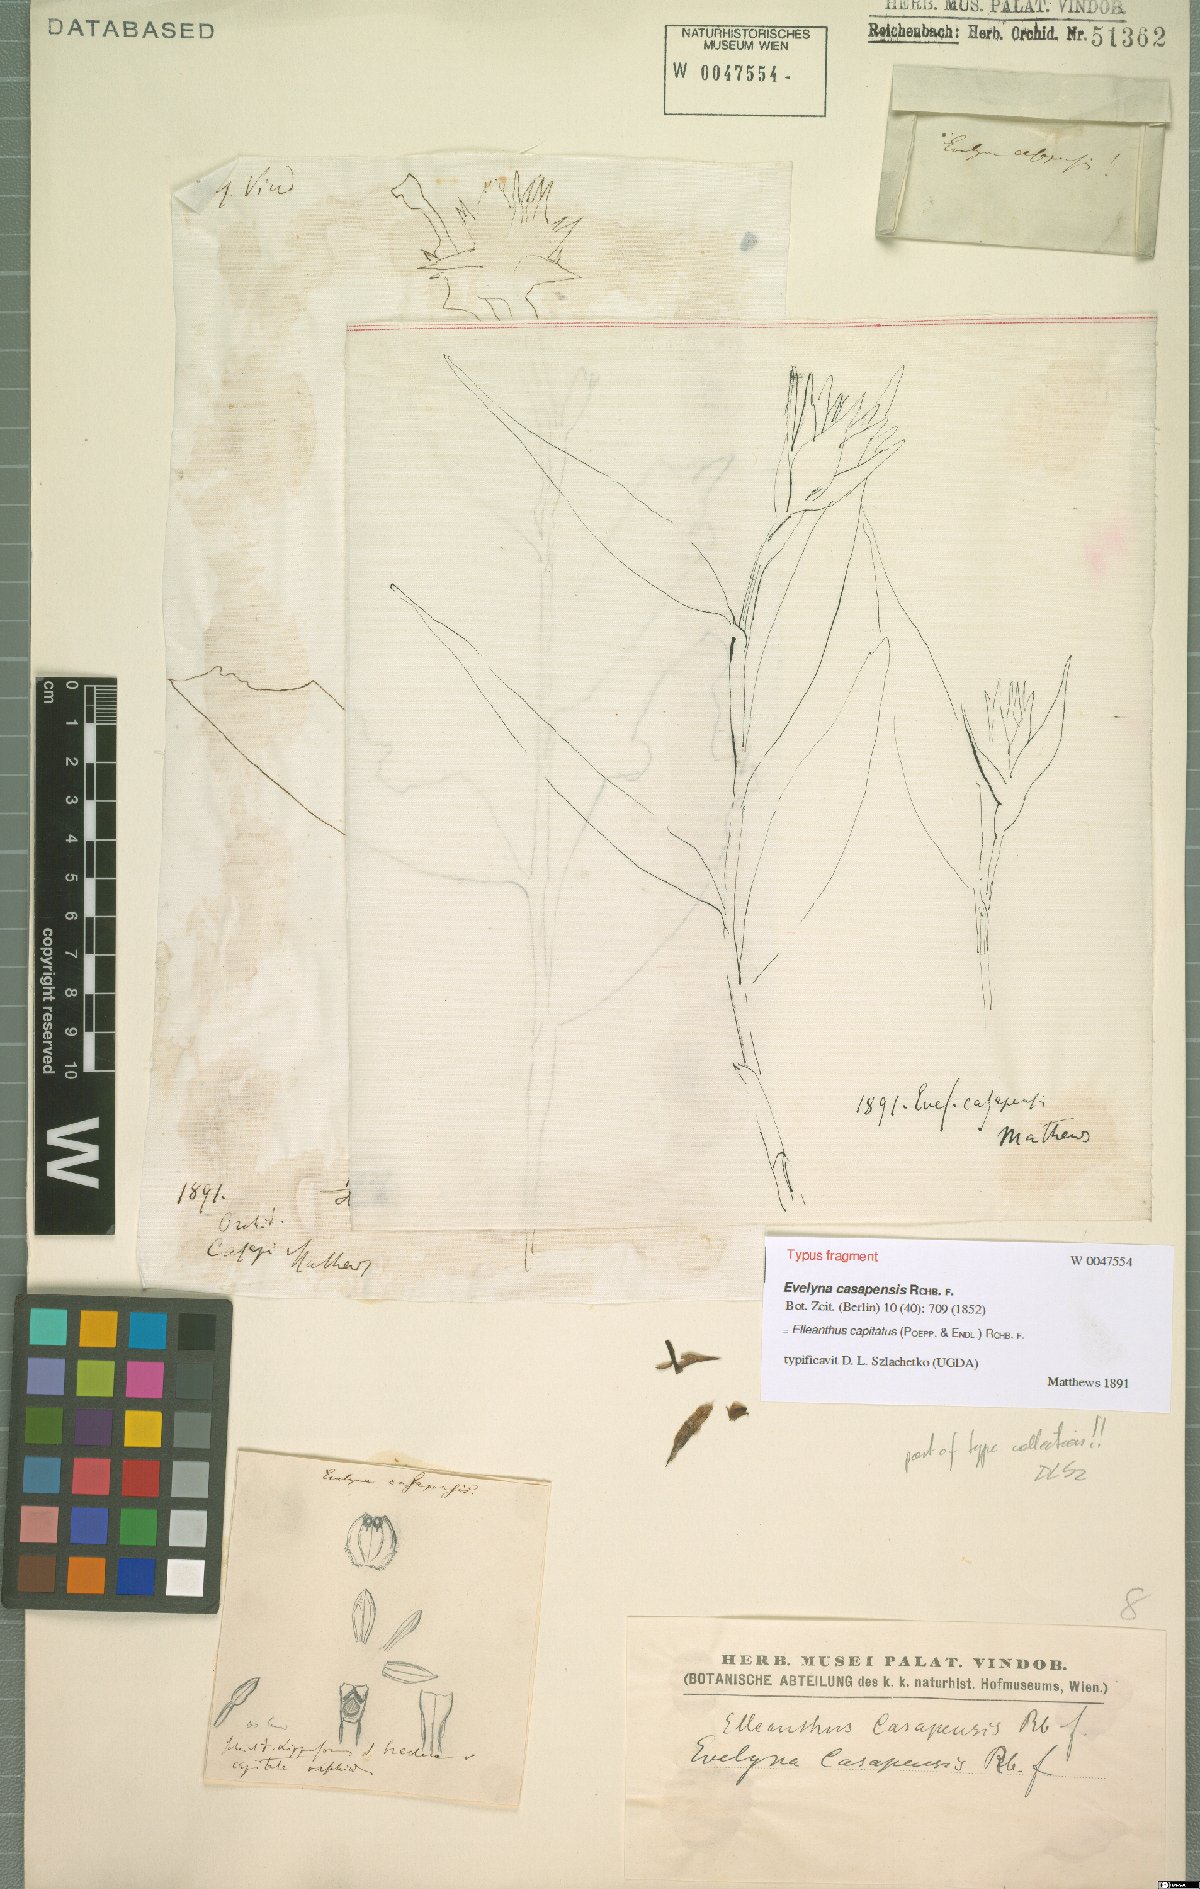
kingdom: Plantae
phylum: Tracheophyta
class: Liliopsida
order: Asparagales
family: Orchidaceae
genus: Elleanthus
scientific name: Elleanthus capitatus
